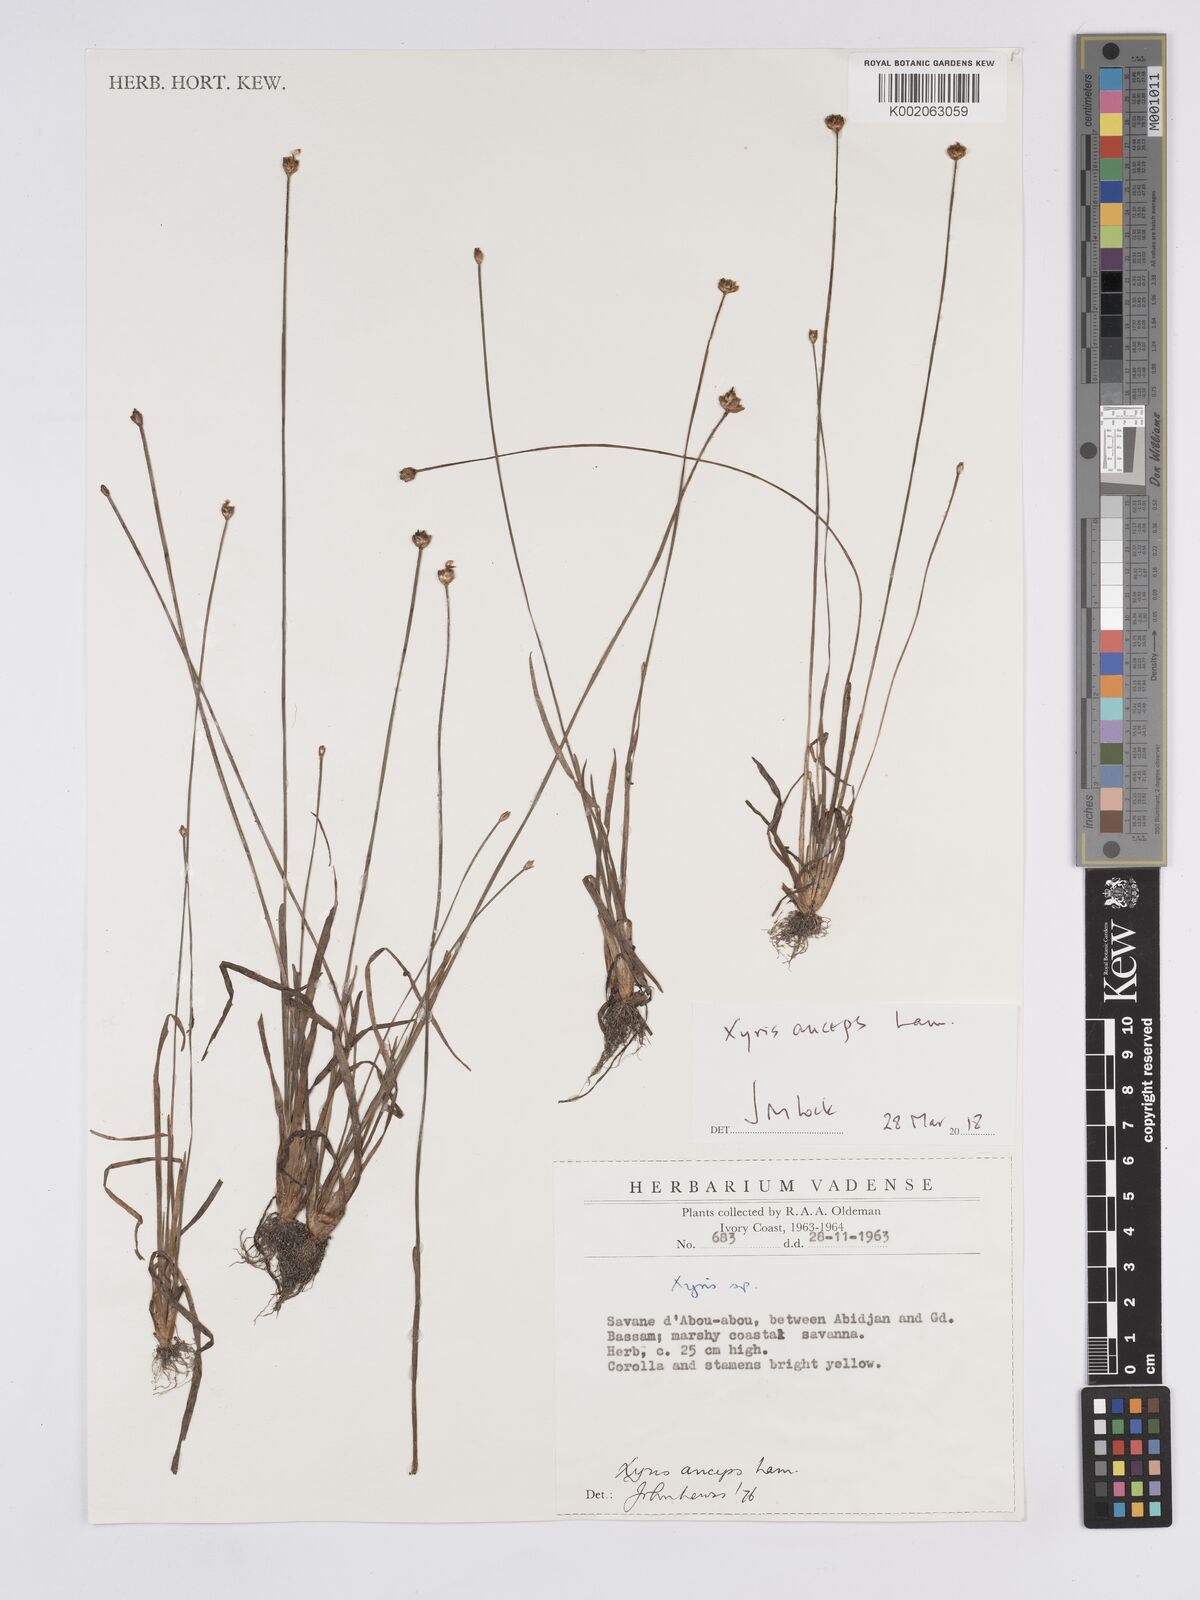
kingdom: Plantae
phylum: Tracheophyta
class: Liliopsida
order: Poales
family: Xyridaceae
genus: Xyris
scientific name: Xyris anceps
